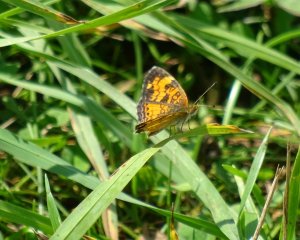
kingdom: Animalia
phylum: Arthropoda
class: Insecta
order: Lepidoptera
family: Nymphalidae
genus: Phyciodes
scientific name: Phyciodes tharos
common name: Pearl Crescent
